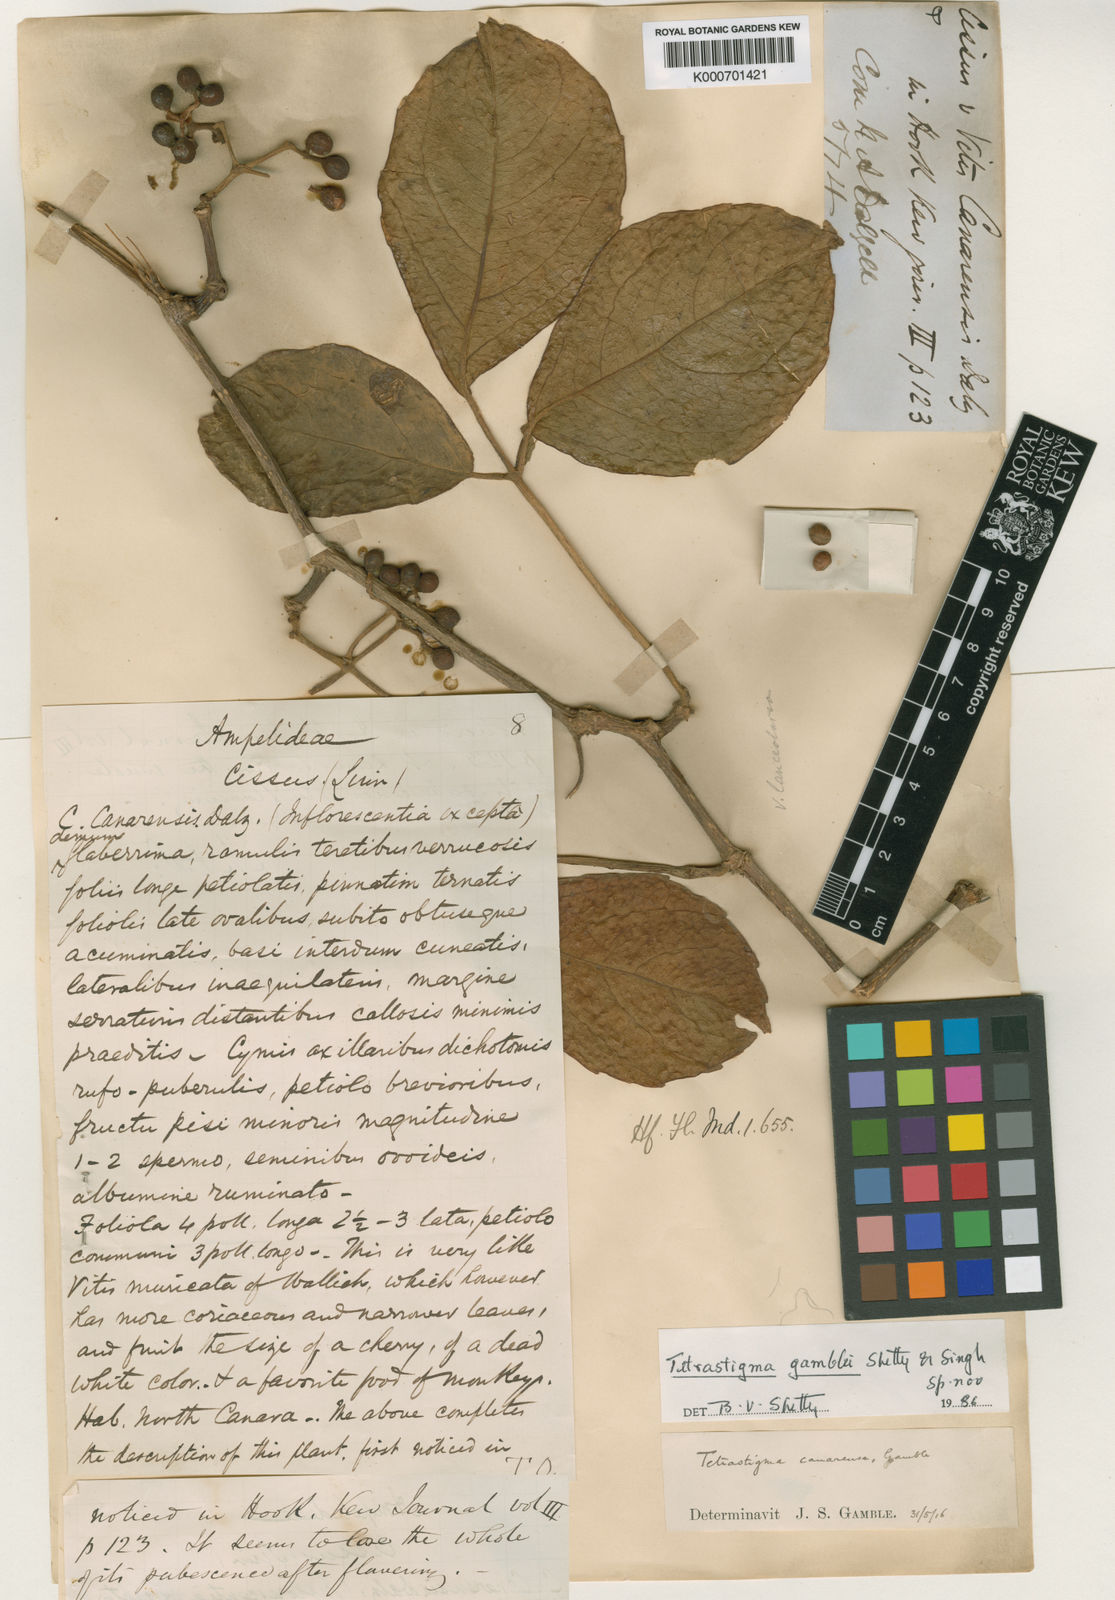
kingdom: Plantae
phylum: Tracheophyta
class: Magnoliopsida
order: Vitales
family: Vitaceae
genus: Tetrastigma
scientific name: Tetrastigma gamblei
